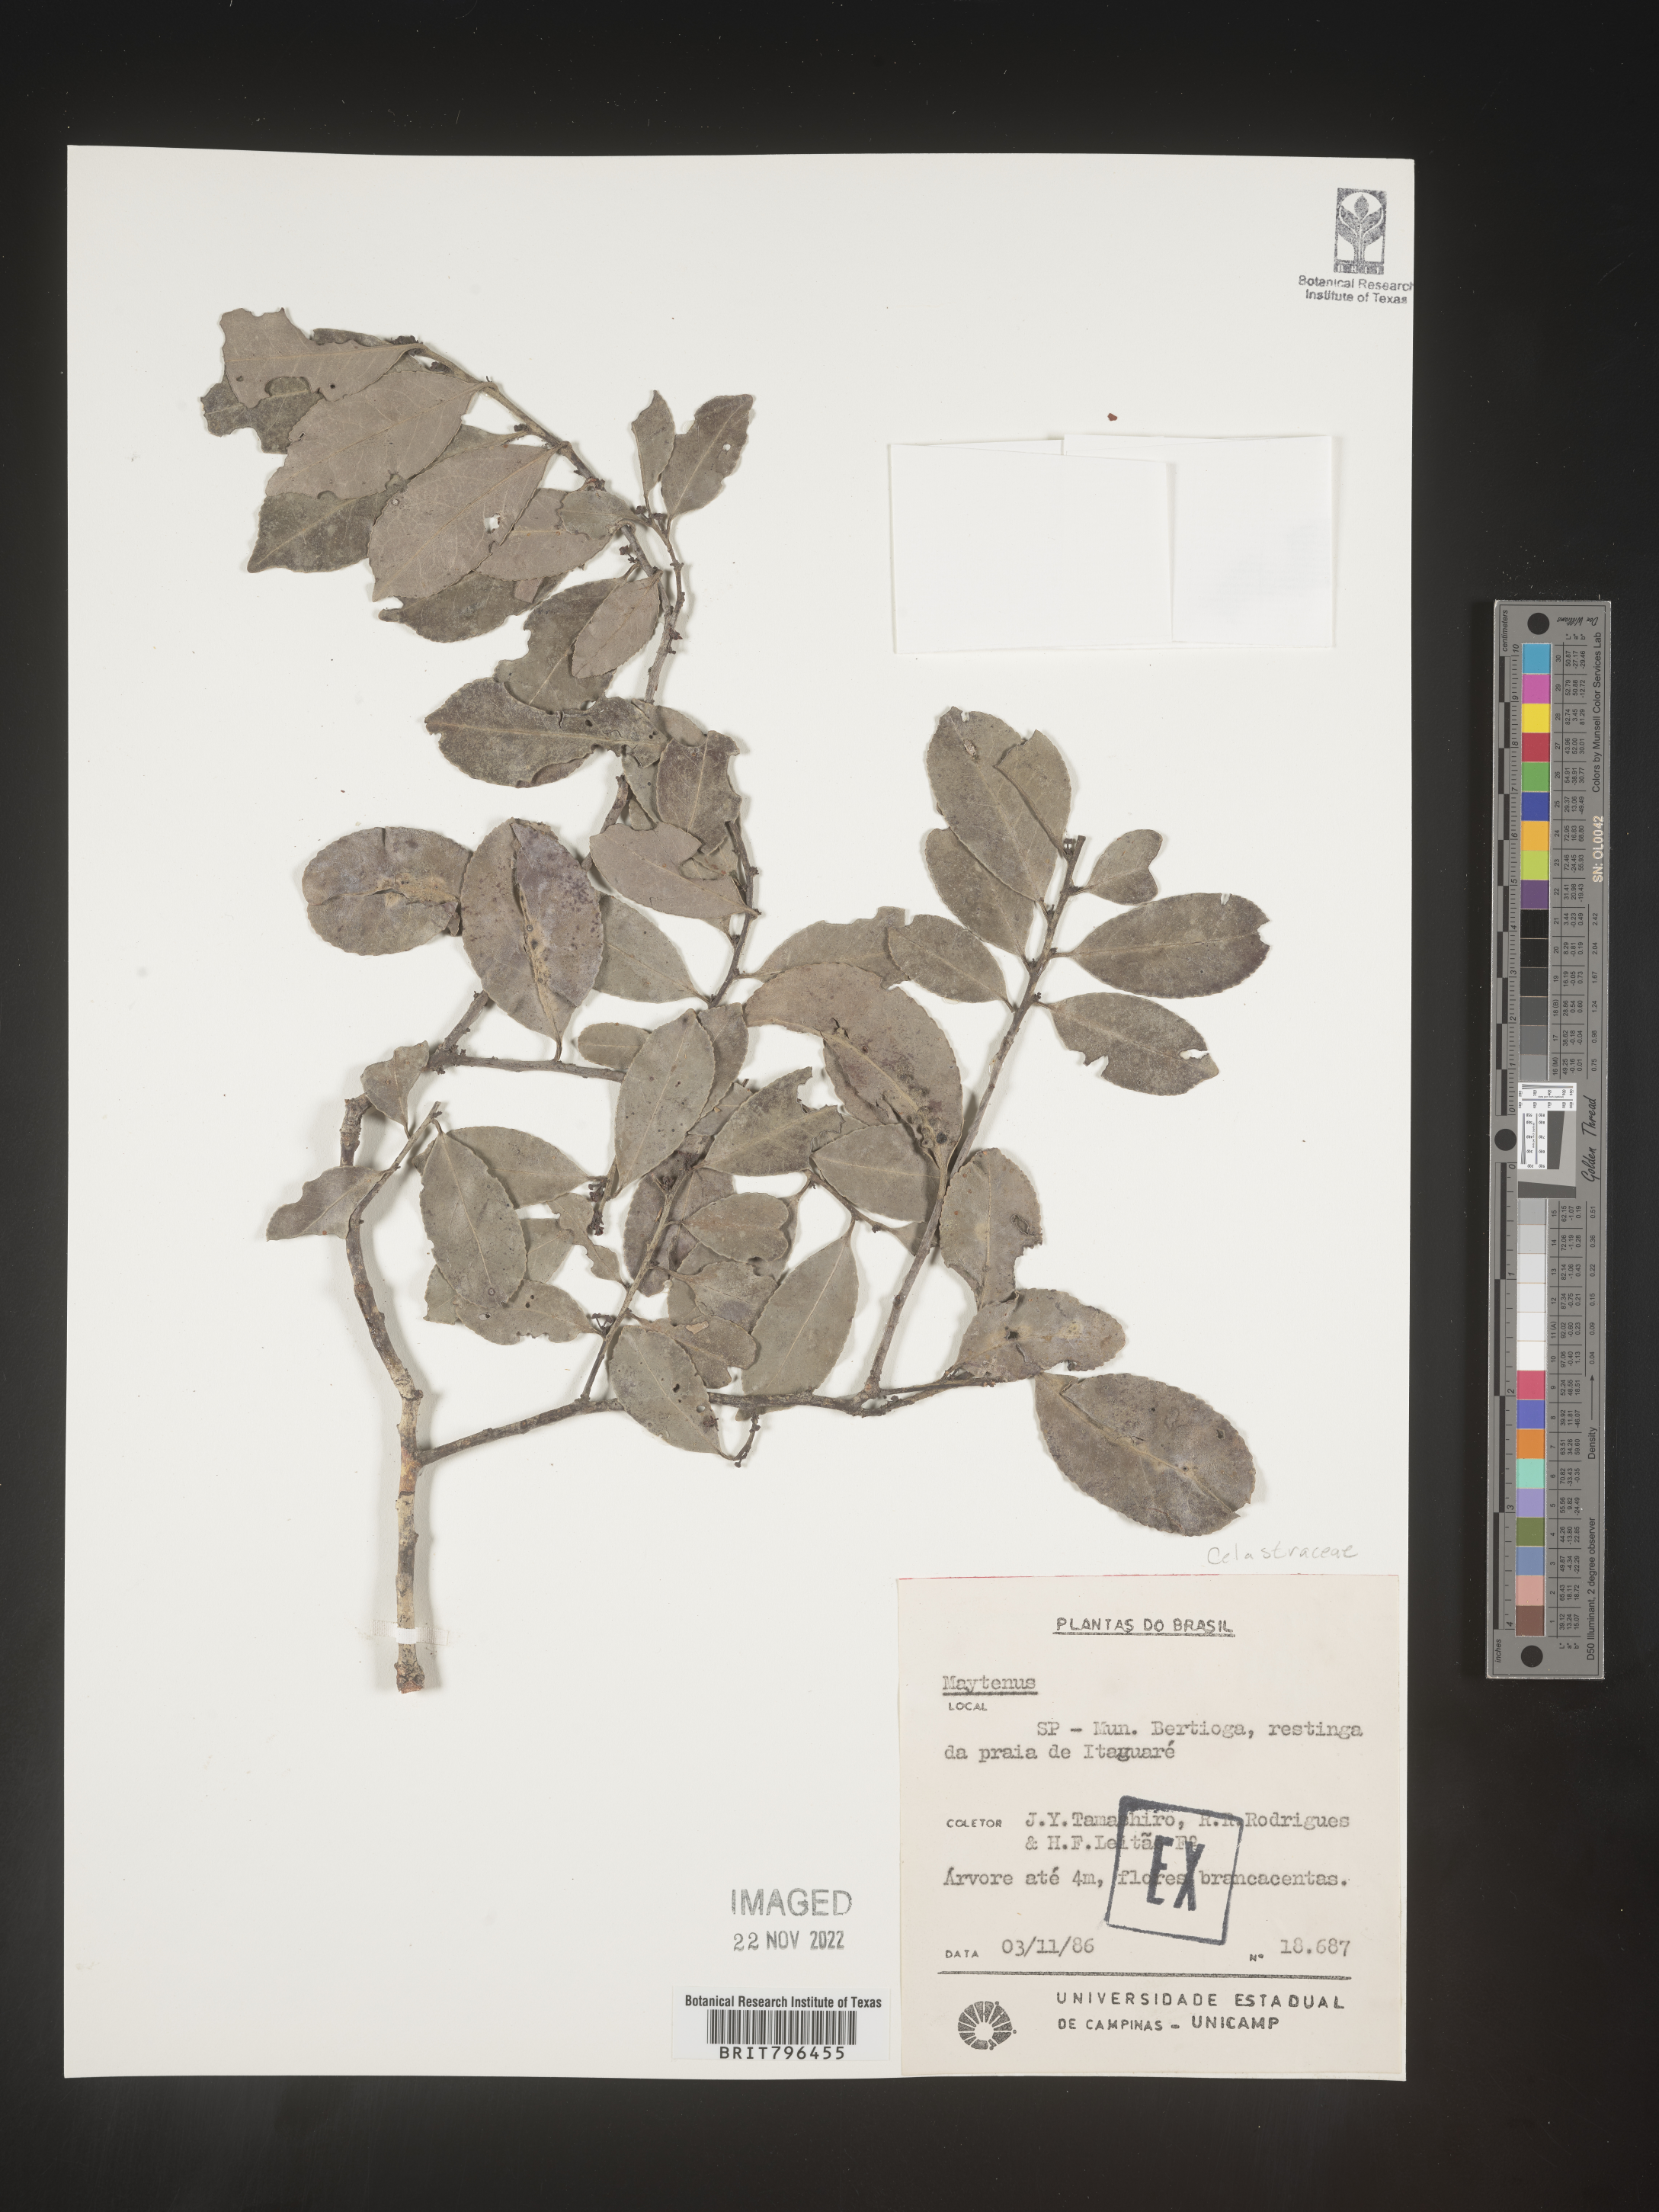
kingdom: Plantae
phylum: Tracheophyta
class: Magnoliopsida
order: Celastrales
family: Celastraceae
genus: Maytenus
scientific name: Maytenus
